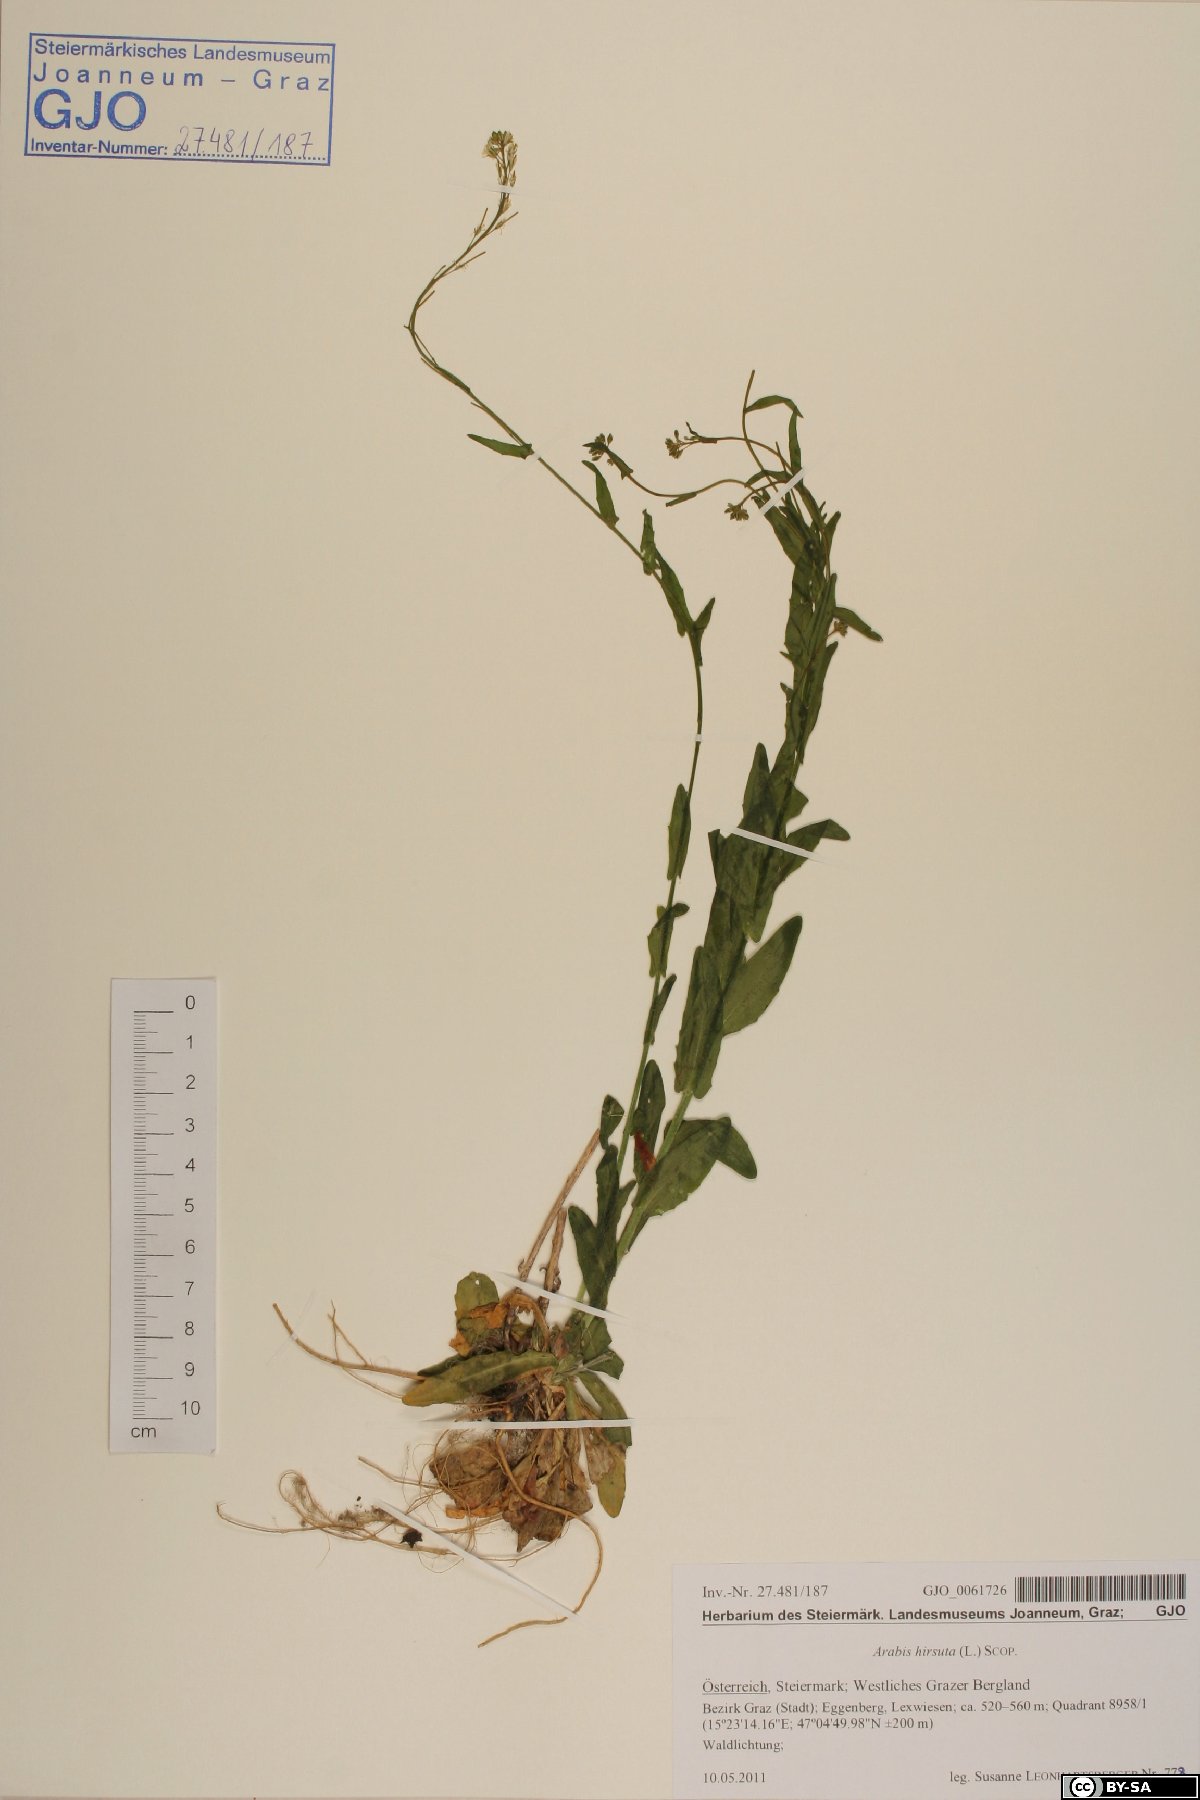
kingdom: Plantae
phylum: Tracheophyta
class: Magnoliopsida
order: Brassicales
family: Brassicaceae
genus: Arabis
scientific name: Arabis hirsuta
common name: Hairy rock-cress
